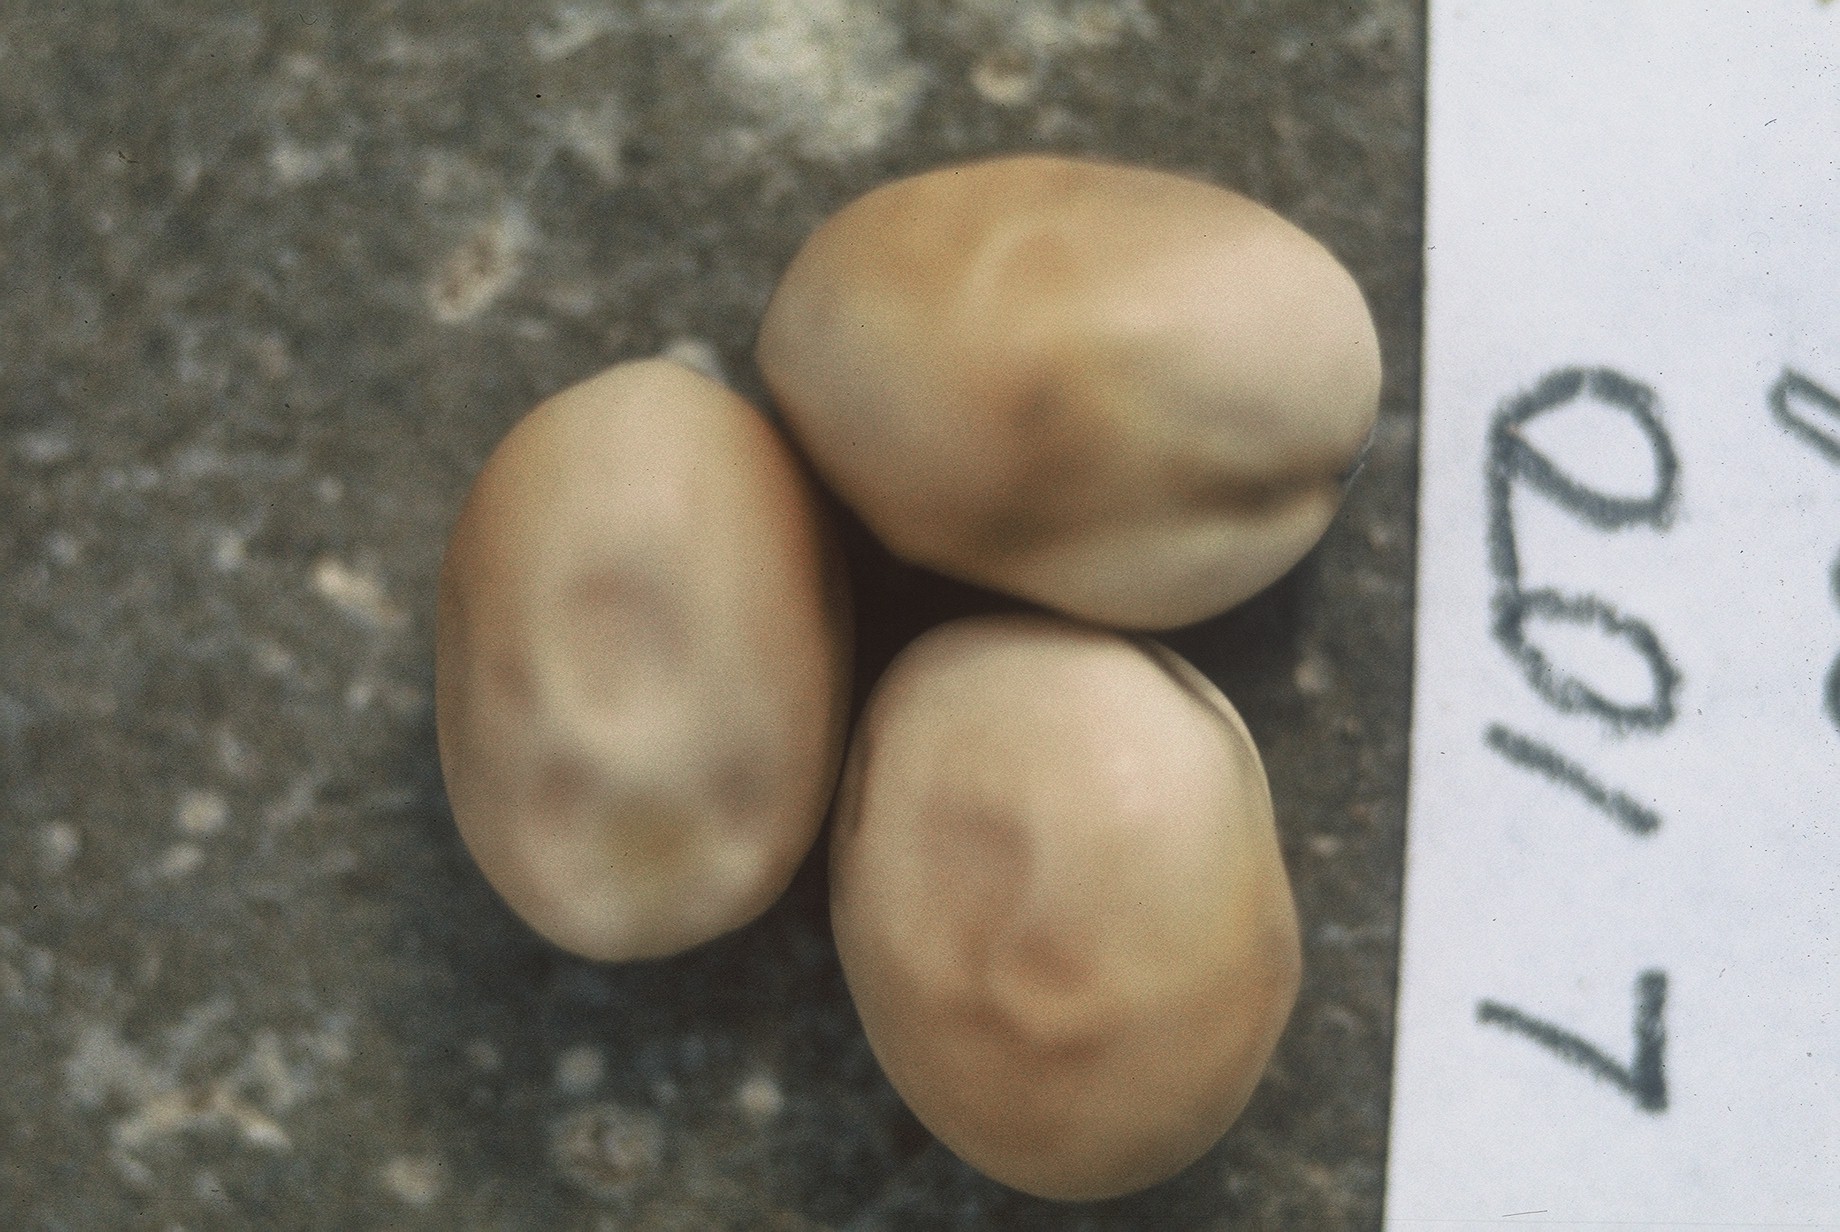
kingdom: Plantae
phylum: Tracheophyta
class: Magnoliopsida
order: Fabales
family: Fabaceae
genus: Lathyrus
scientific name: Lathyrus oleraceus
